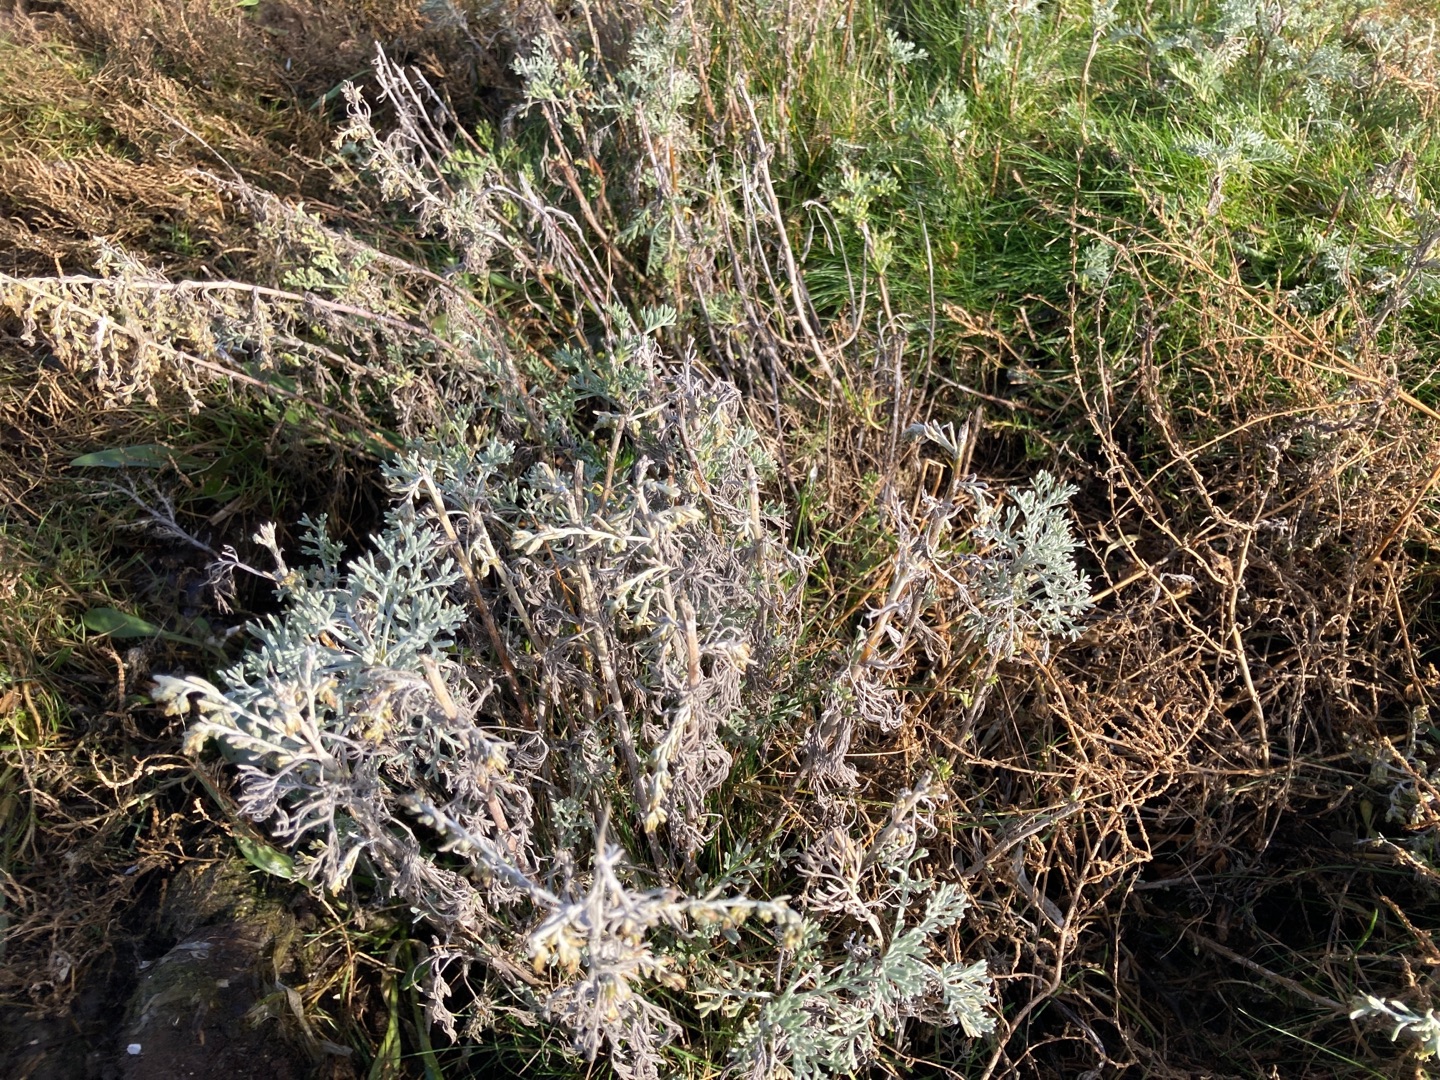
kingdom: Plantae
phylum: Tracheophyta
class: Magnoliopsida
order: Asterales
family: Asteraceae
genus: Artemisia
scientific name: Artemisia maritima
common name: Strandmalurt
